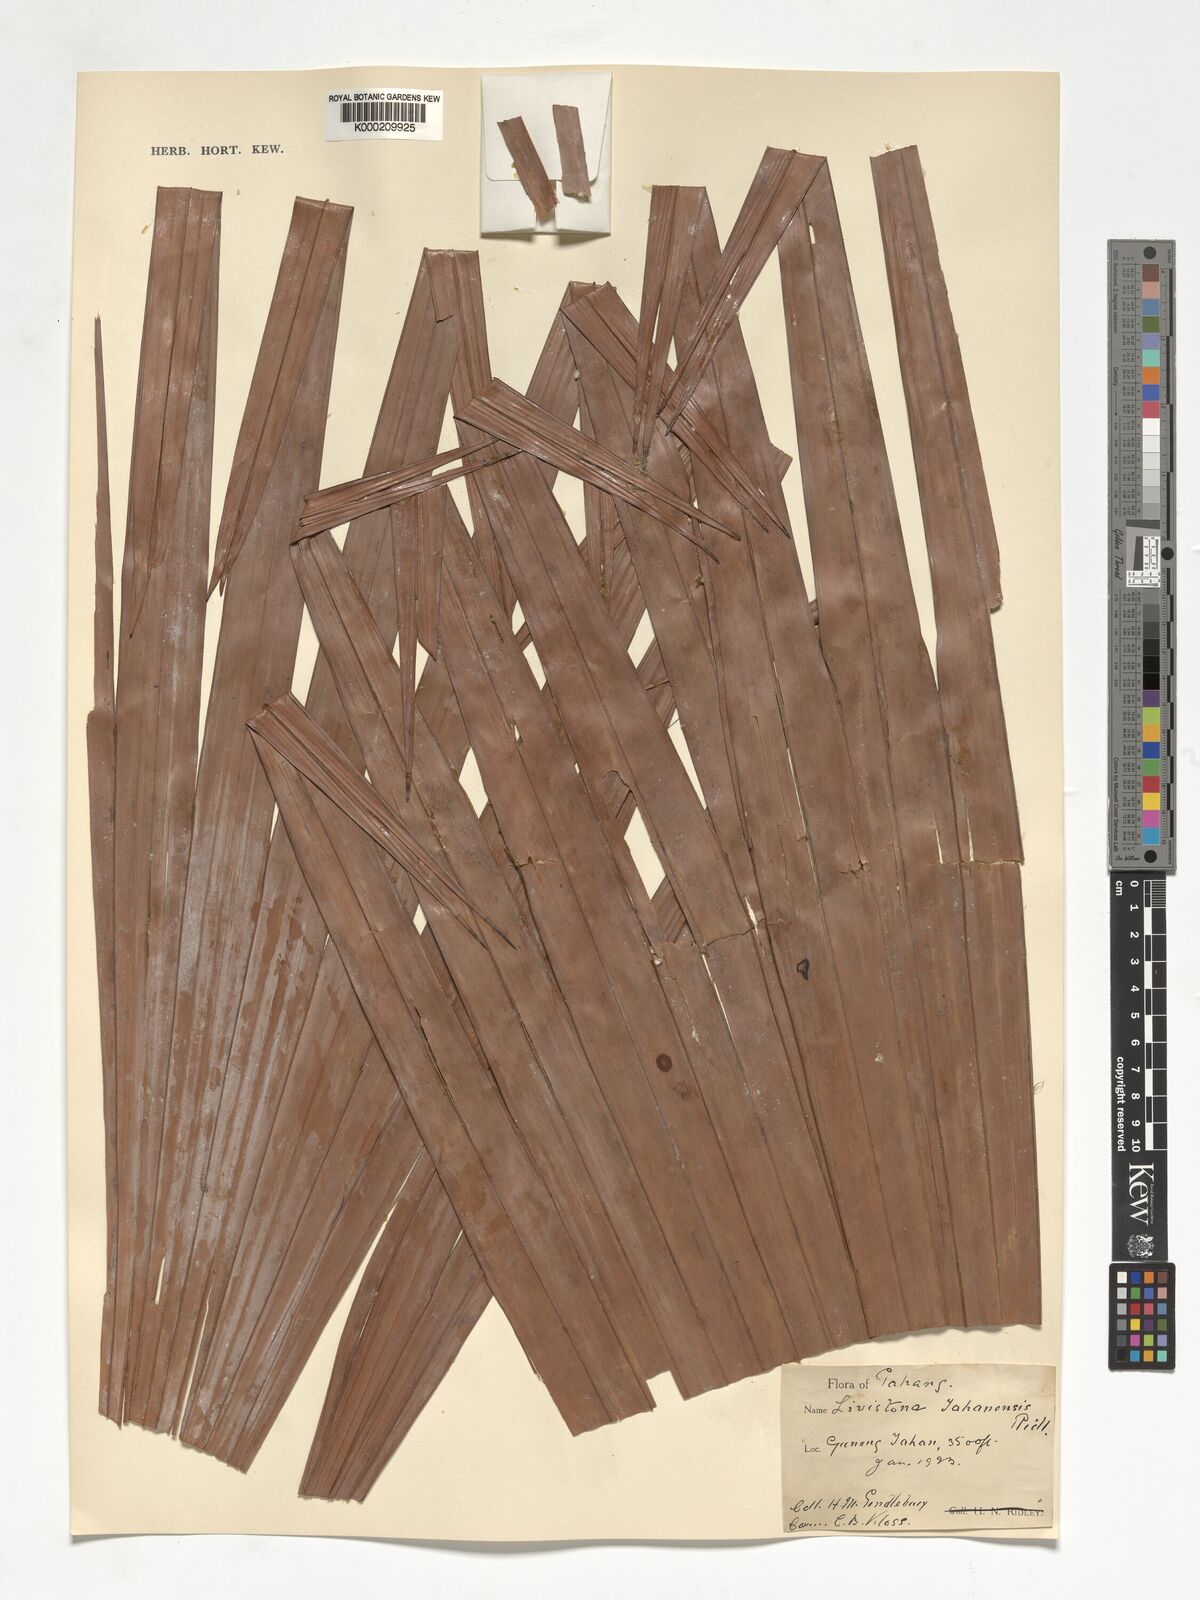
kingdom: Plantae
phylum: Tracheophyta
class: Liliopsida
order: Arecales
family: Arecaceae
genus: Livistona
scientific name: Livistona tahanensis
